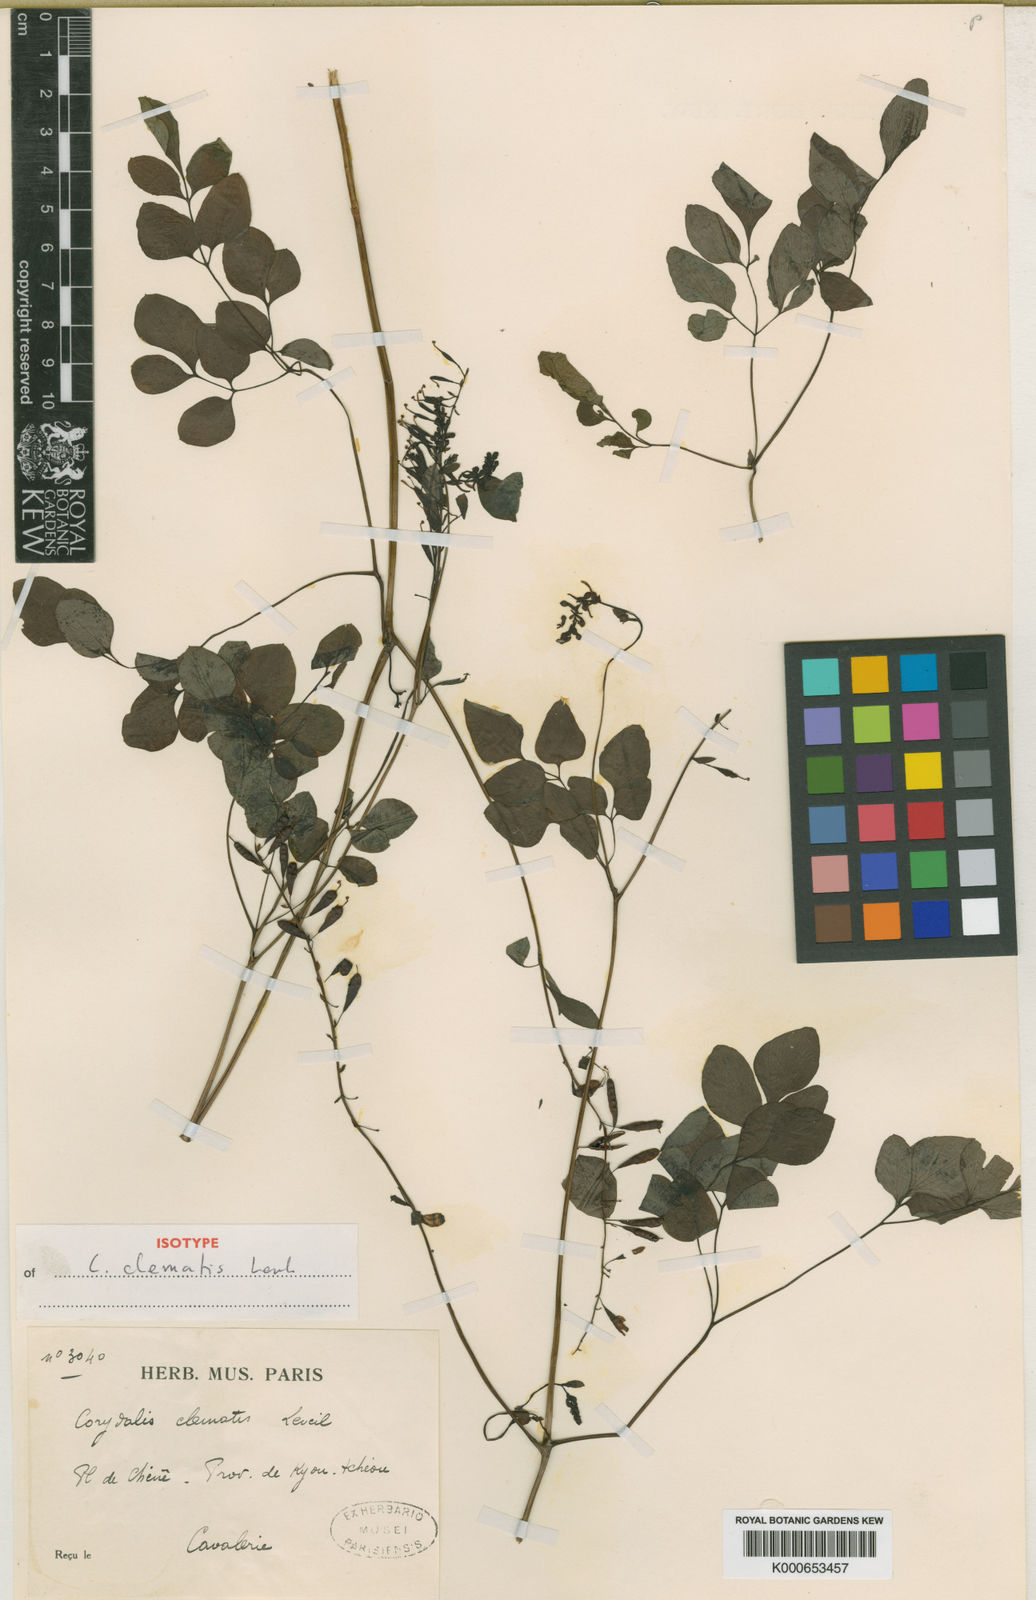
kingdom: Plantae
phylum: Tracheophyta
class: Magnoliopsida
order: Ranunculales
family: Papaveraceae
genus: Corydalis
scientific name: Corydalis
